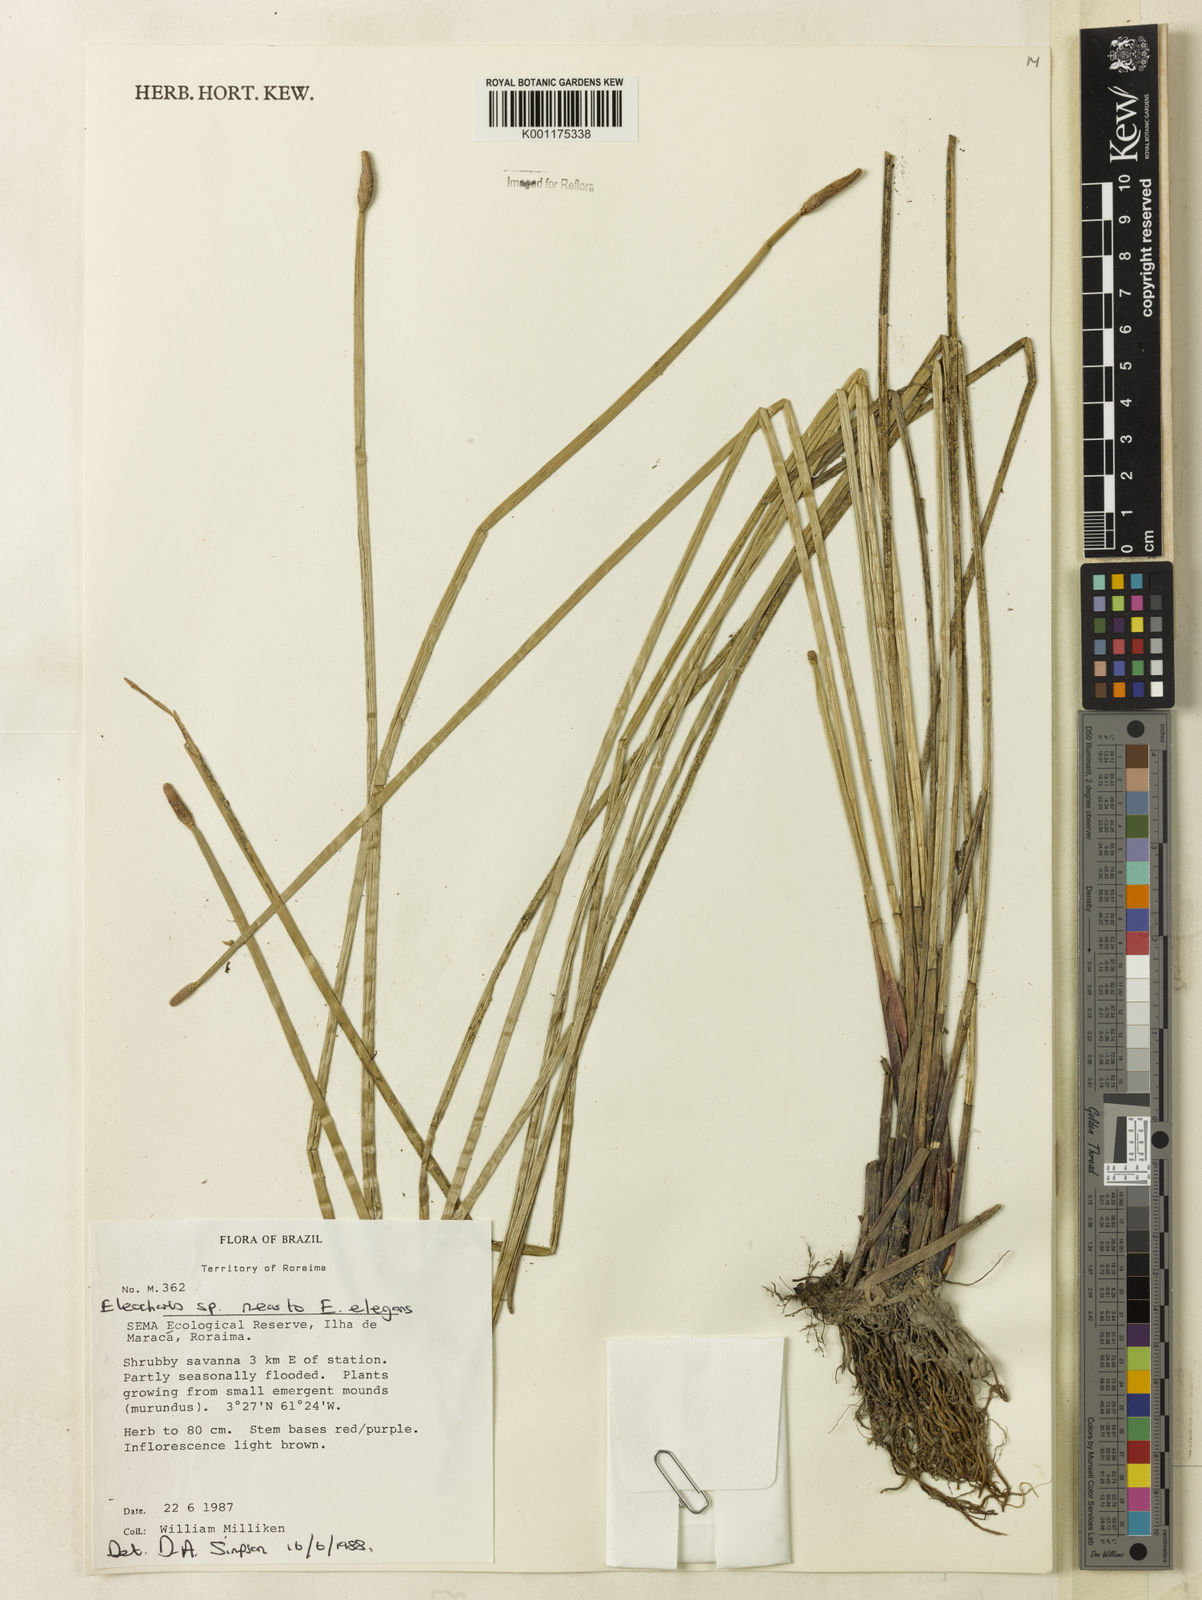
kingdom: Plantae
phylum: Tracheophyta
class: Liliopsida
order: Poales
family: Cyperaceae
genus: Eleocharis
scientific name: Eleocharis elegans
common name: Elegant spike-rush
